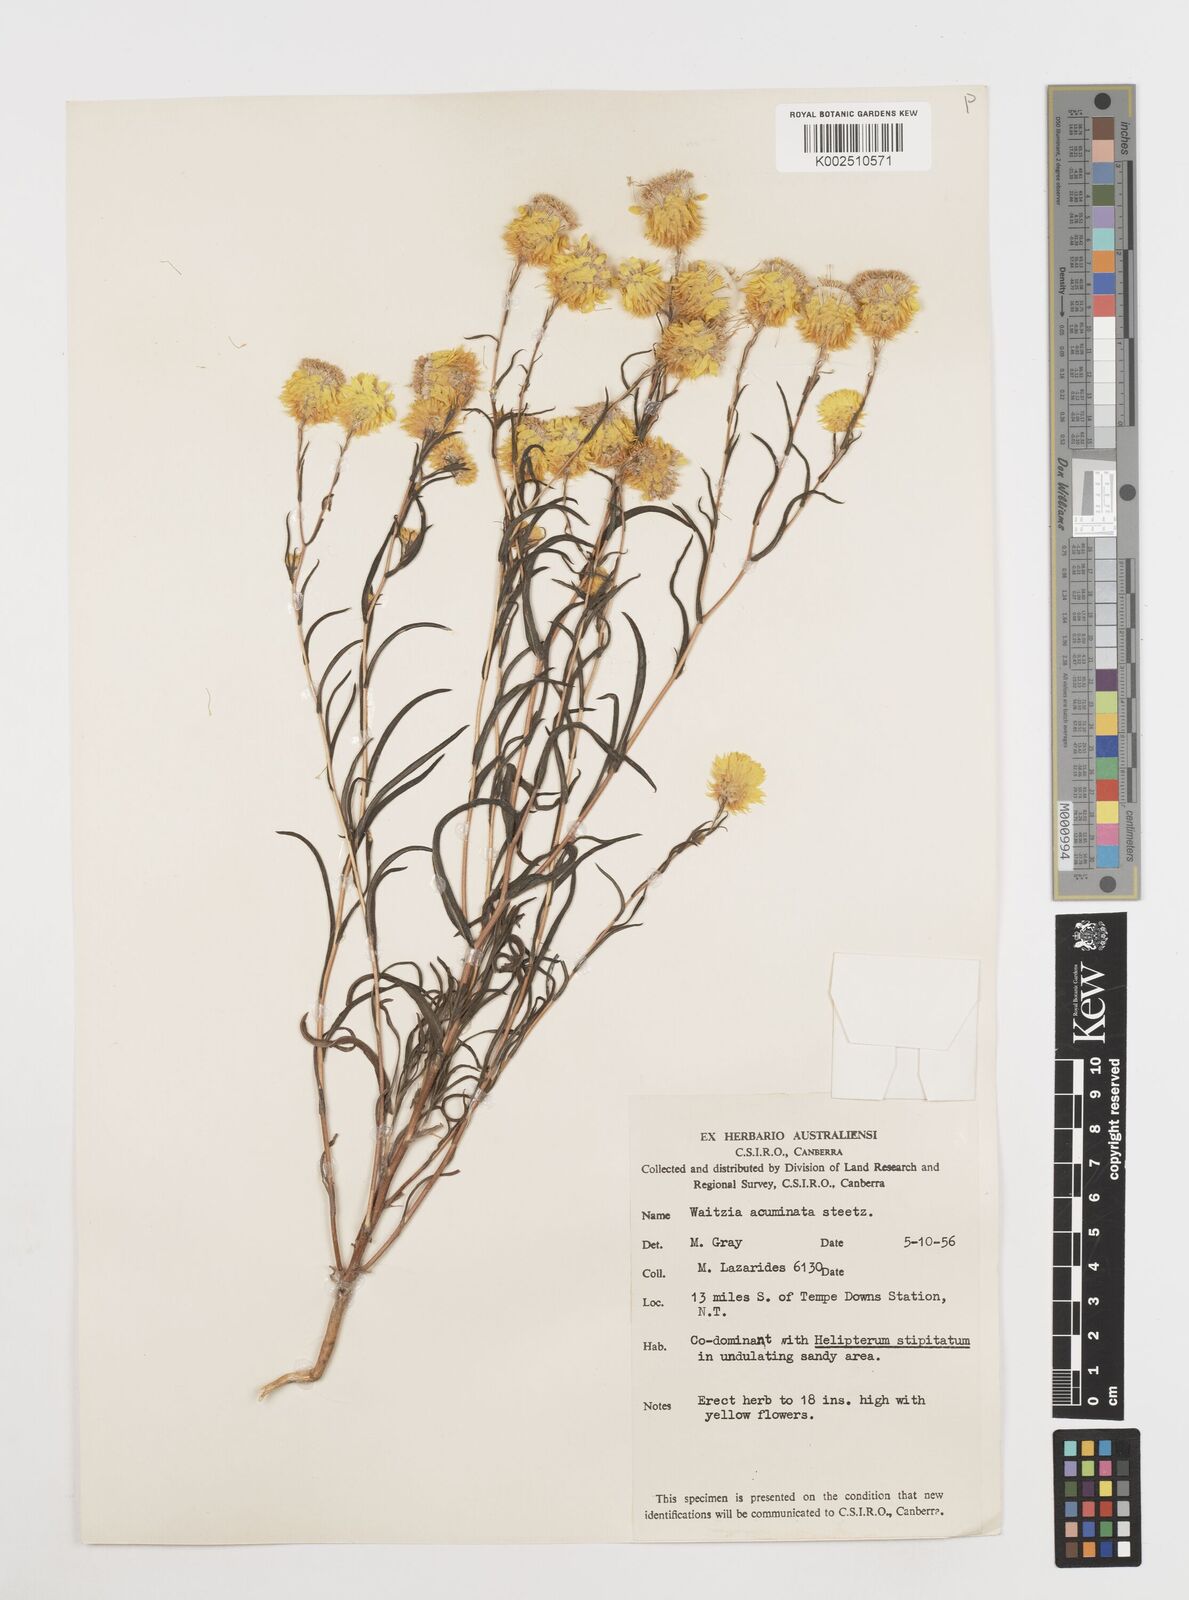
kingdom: Plantae
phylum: Tracheophyta
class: Magnoliopsida
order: Asterales
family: Asteraceae
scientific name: Asteraceae
